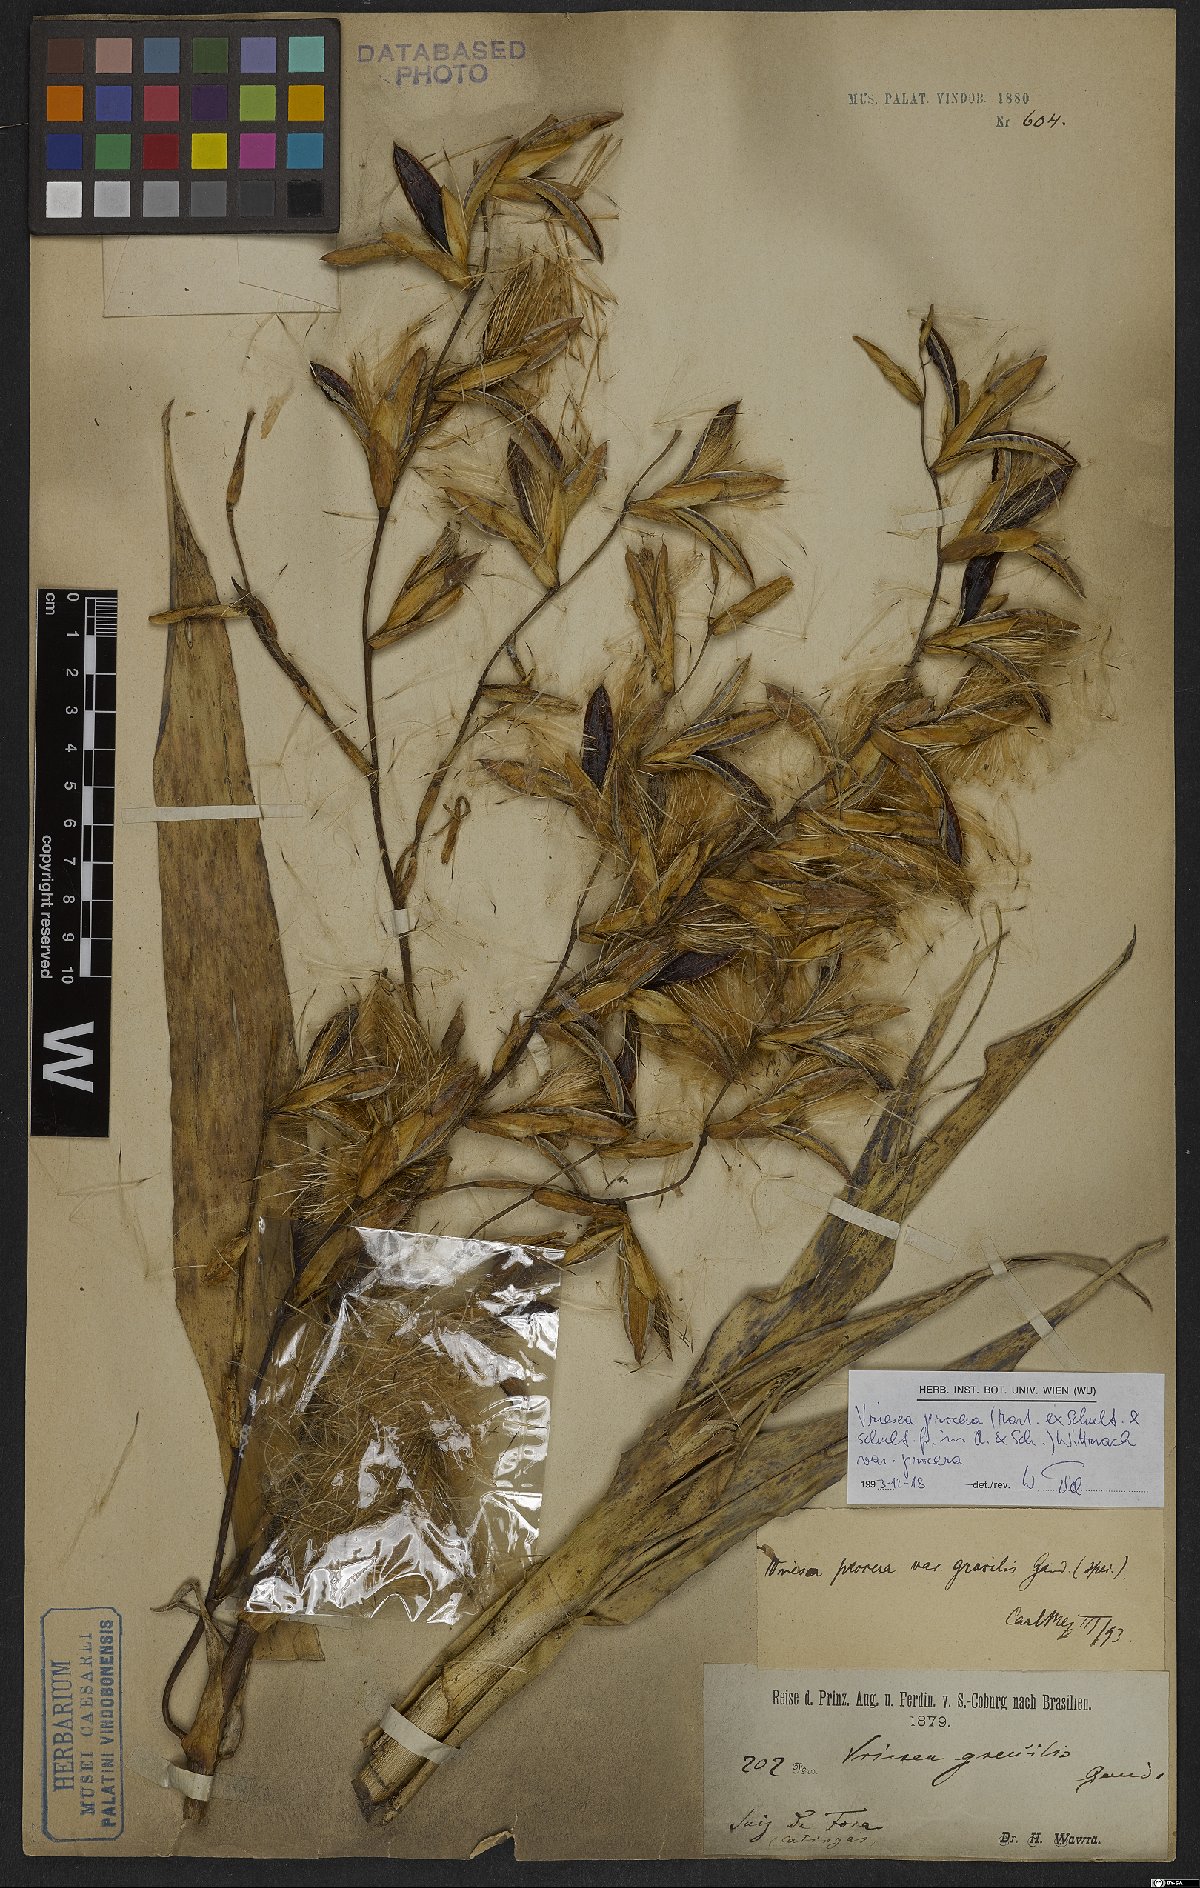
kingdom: Plantae
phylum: Tracheophyta
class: Liliopsida
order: Poales
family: Bromeliaceae
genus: Vriesea
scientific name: Vriesea procera
